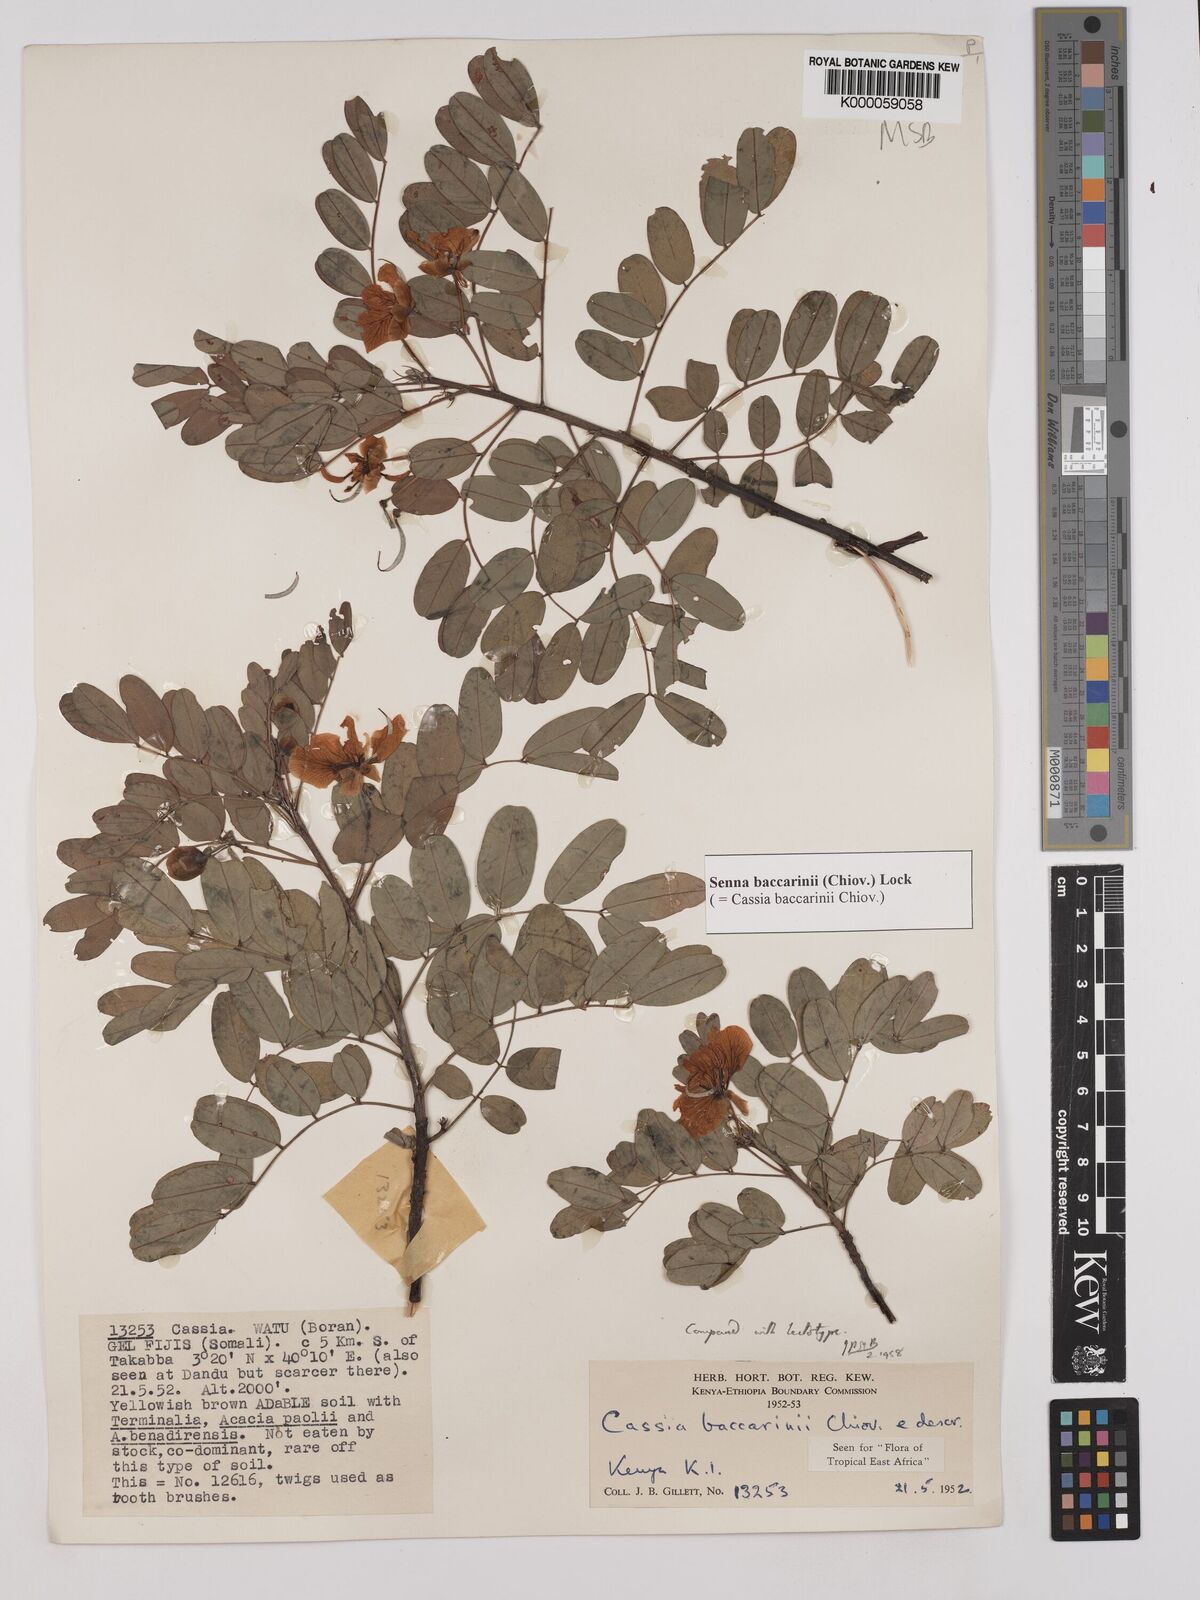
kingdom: Plantae
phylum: Tracheophyta
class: Magnoliopsida
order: Fabales
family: Fabaceae
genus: Senna
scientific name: Senna baccarinii
